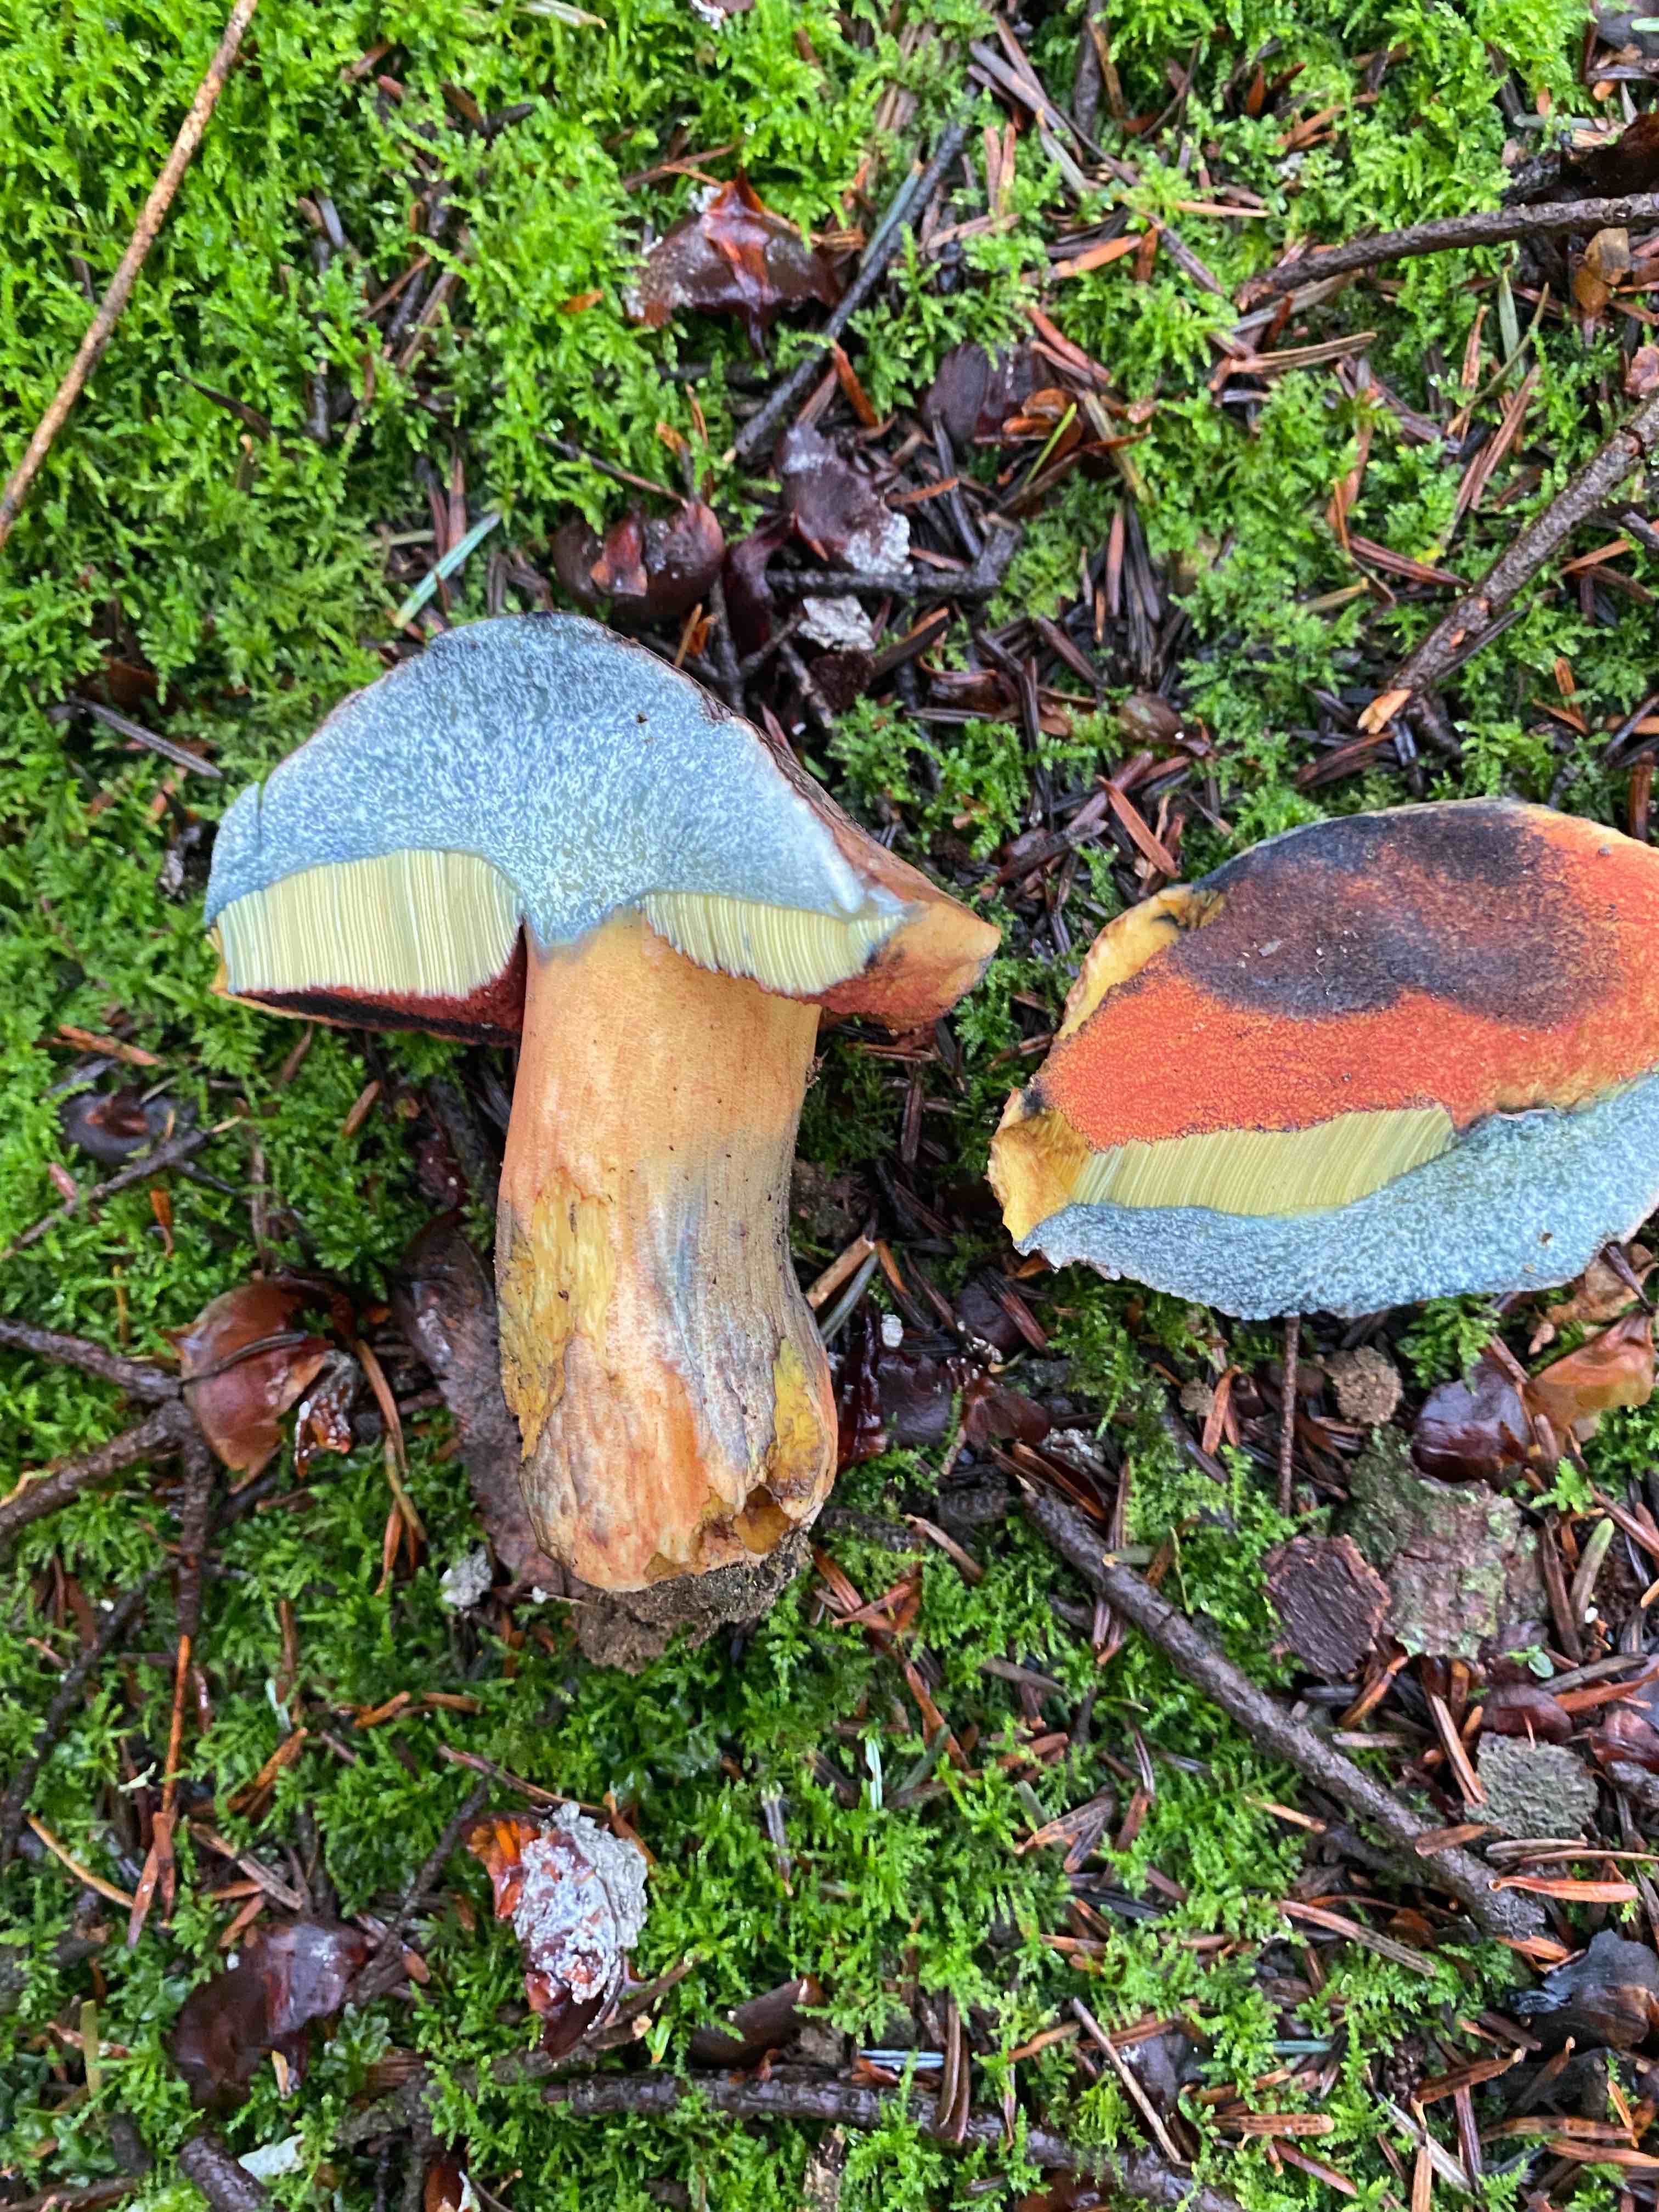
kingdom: Fungi
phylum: Basidiomycota
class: Agaricomycetes
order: Boletales
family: Boletaceae
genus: Neoboletus
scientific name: Neoboletus erythropus
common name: punktstokket indigorørhat
